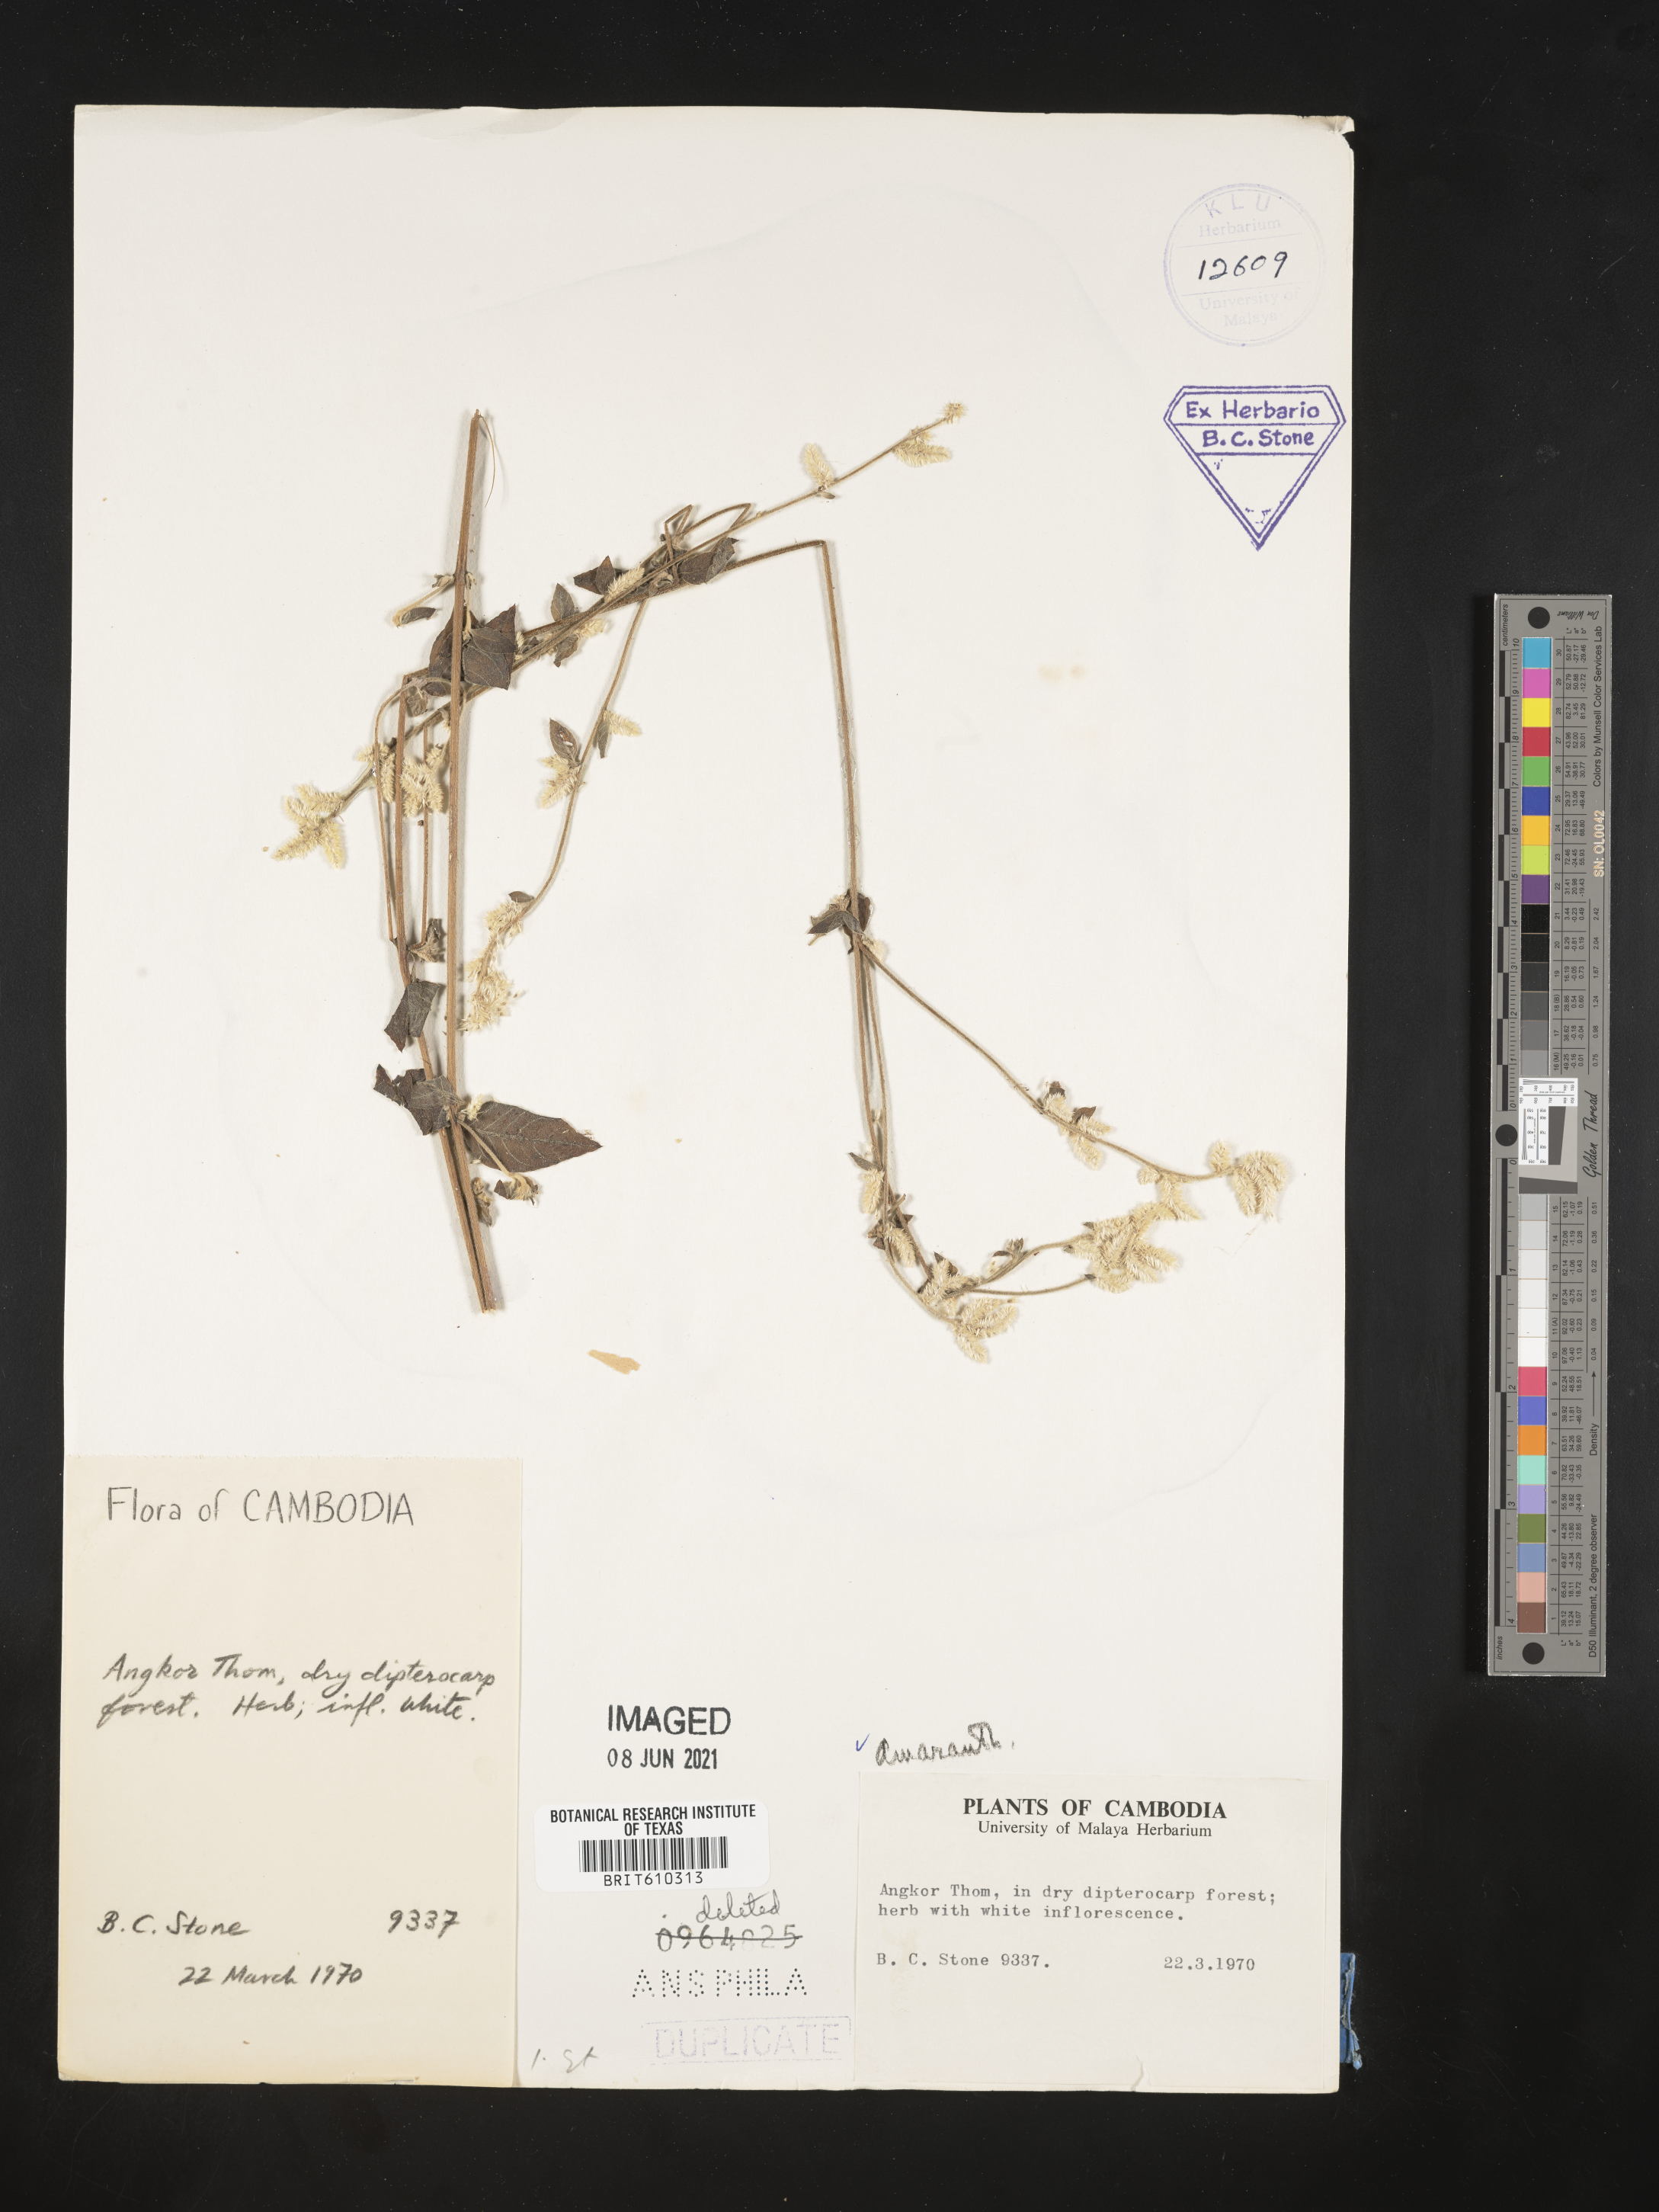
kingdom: Plantae
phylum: Tracheophyta
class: Magnoliopsida
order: Caryophyllales
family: Amaranthaceae
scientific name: Amaranthaceae
